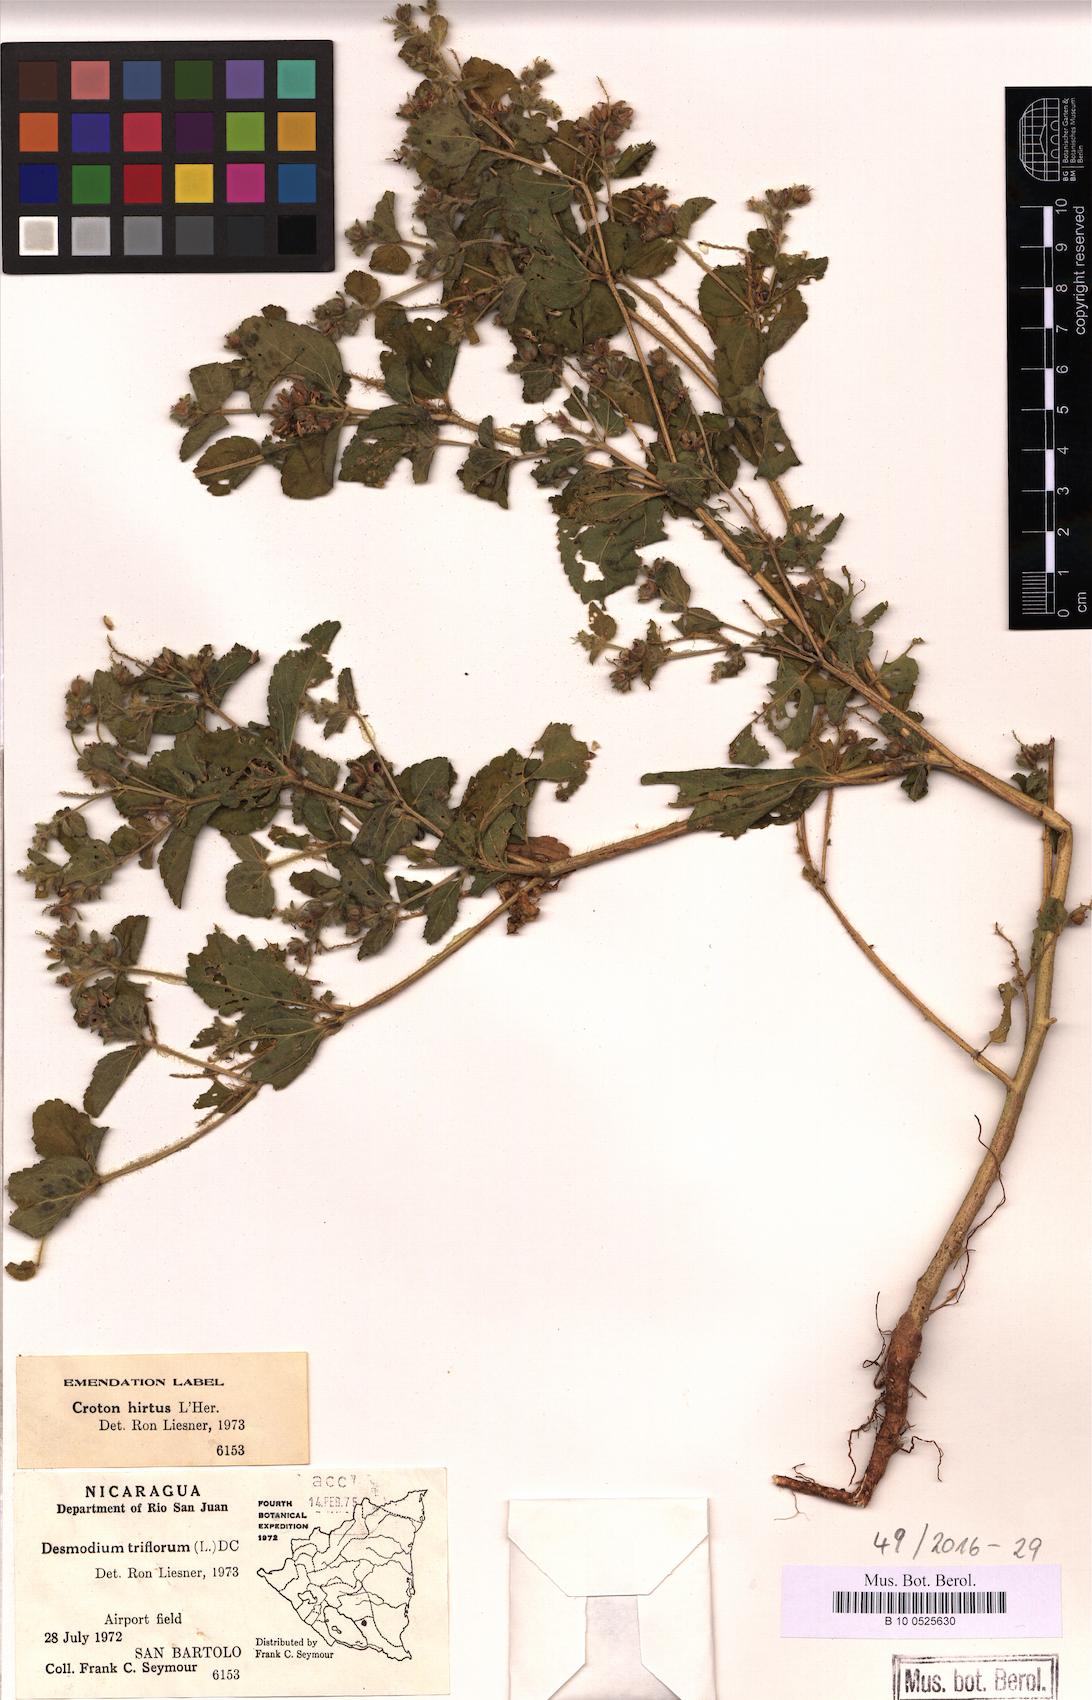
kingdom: Plantae
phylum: Tracheophyta
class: Magnoliopsida
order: Malpighiales
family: Euphorbiaceae
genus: Croton
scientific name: Croton hirtus
